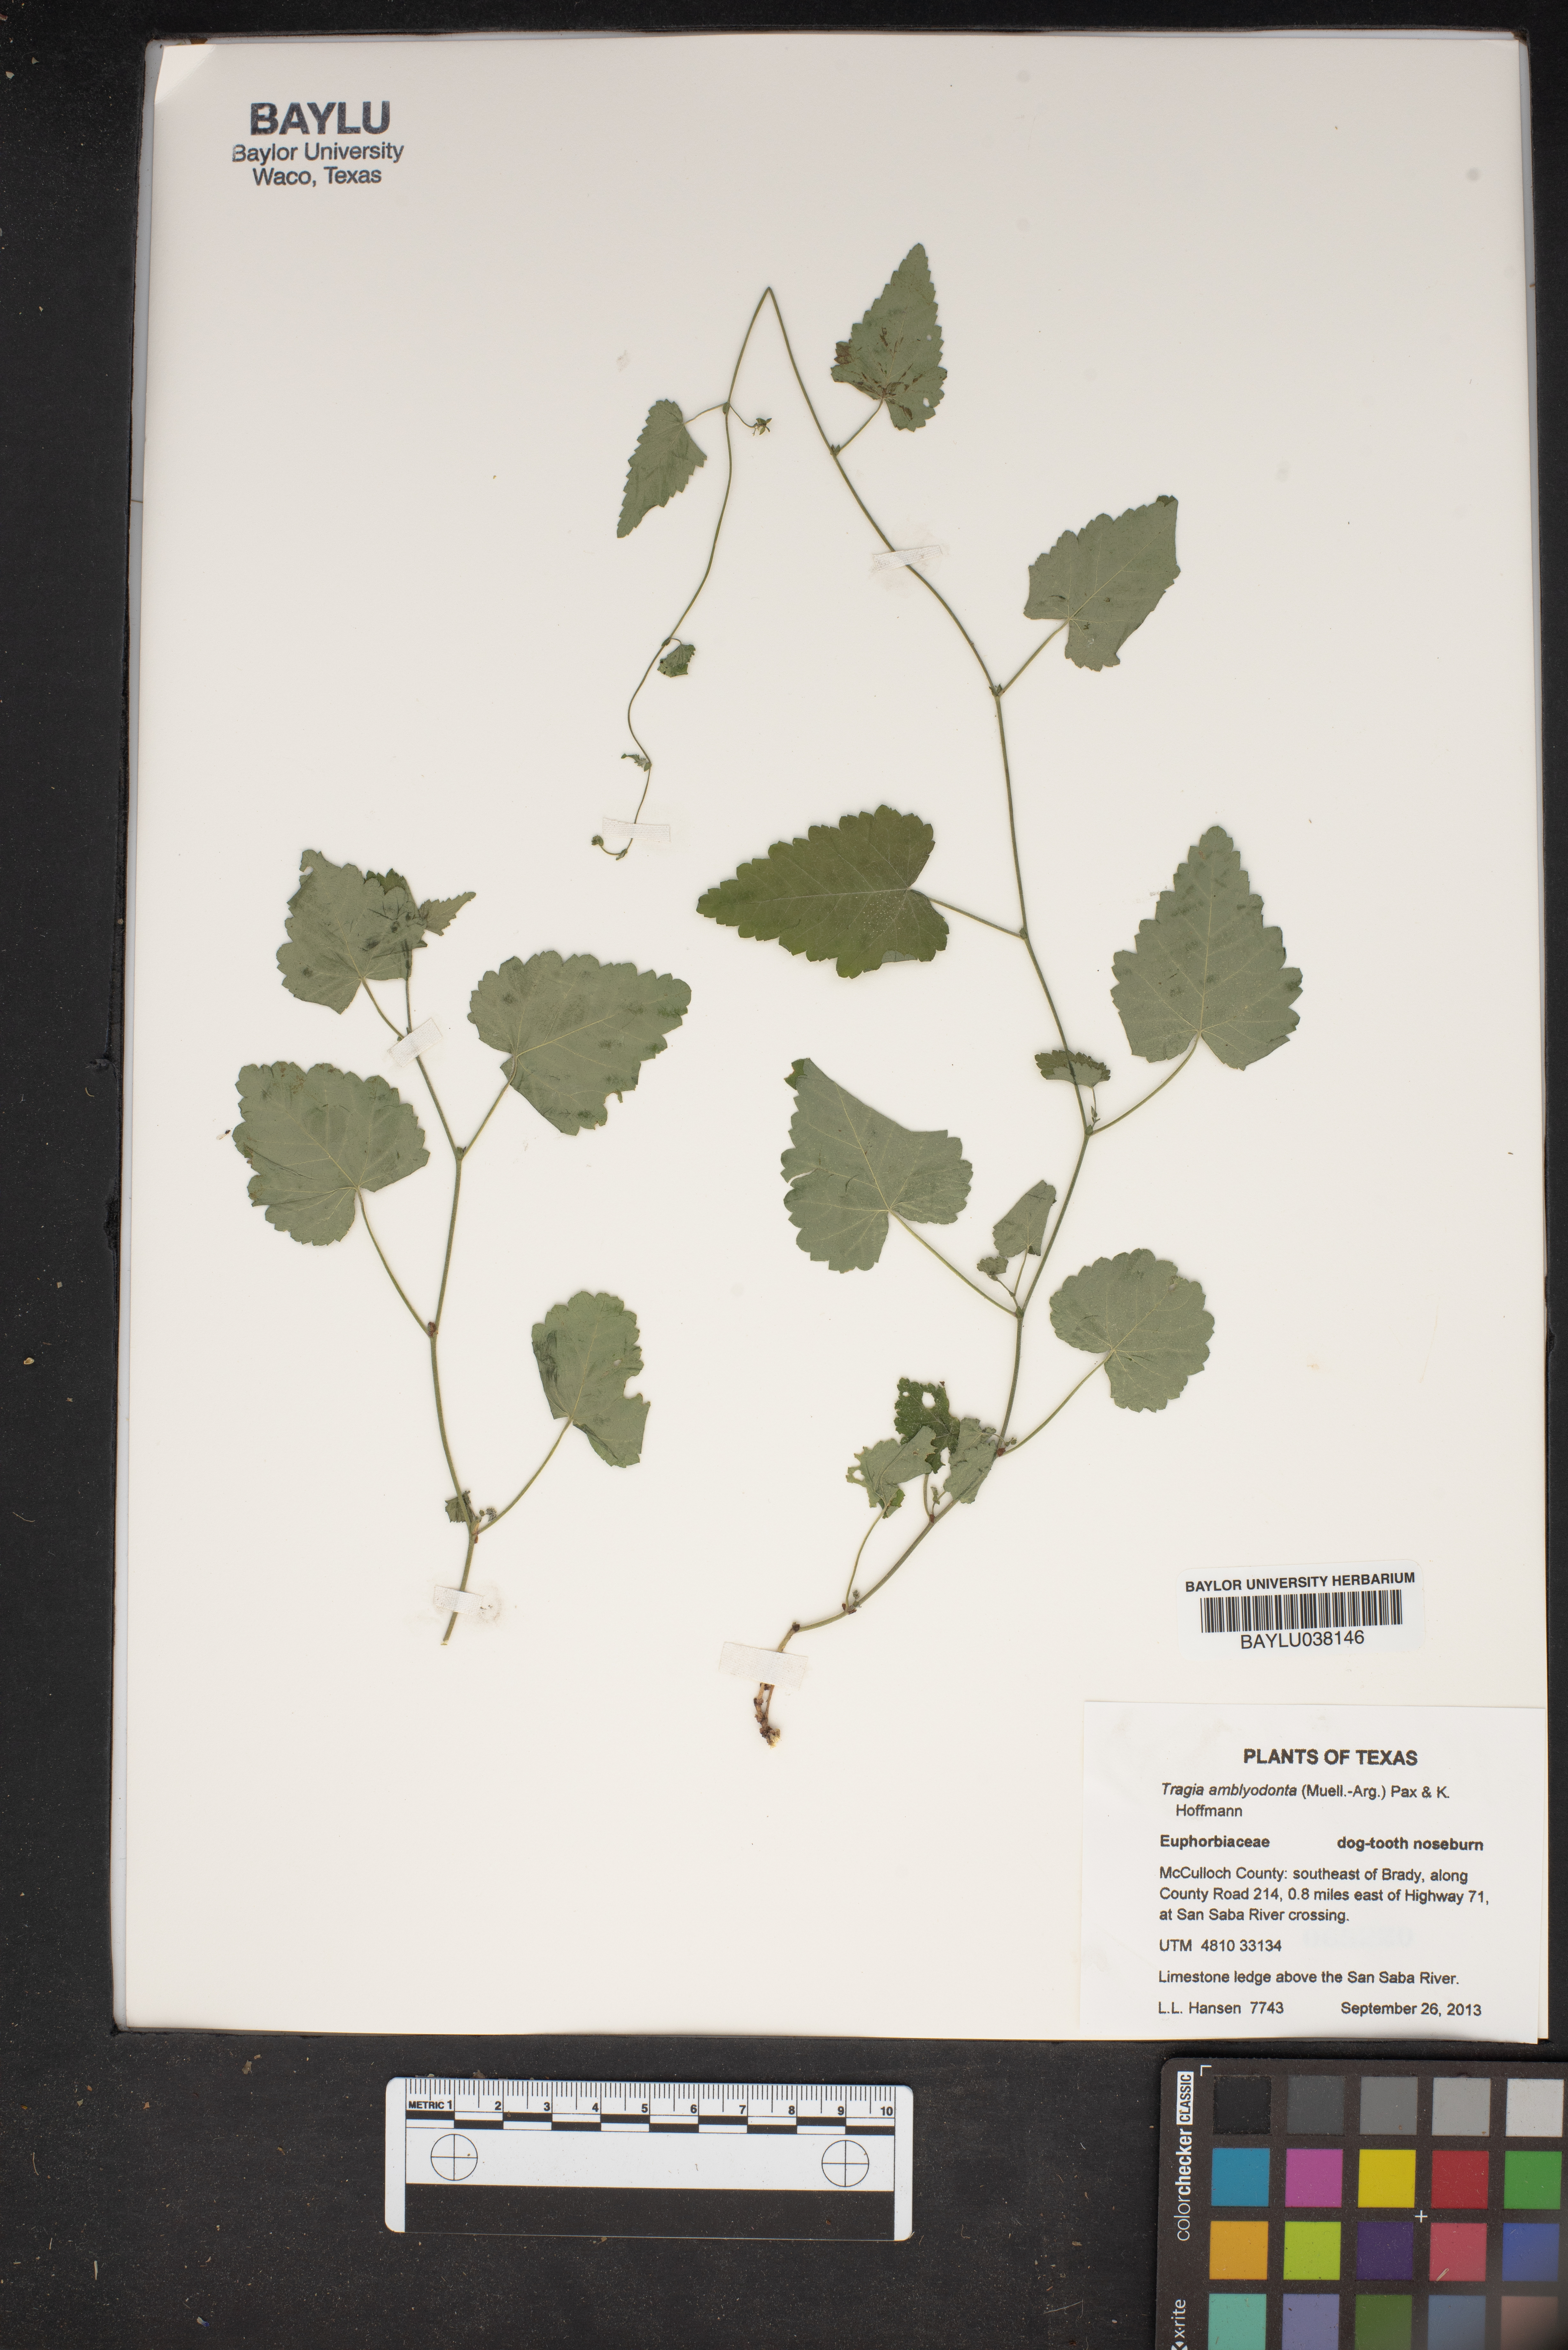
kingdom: Plantae
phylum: Tracheophyta
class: Magnoliopsida
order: Malpighiales
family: Euphorbiaceae
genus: Tragia
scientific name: Tragia amblyodonta
